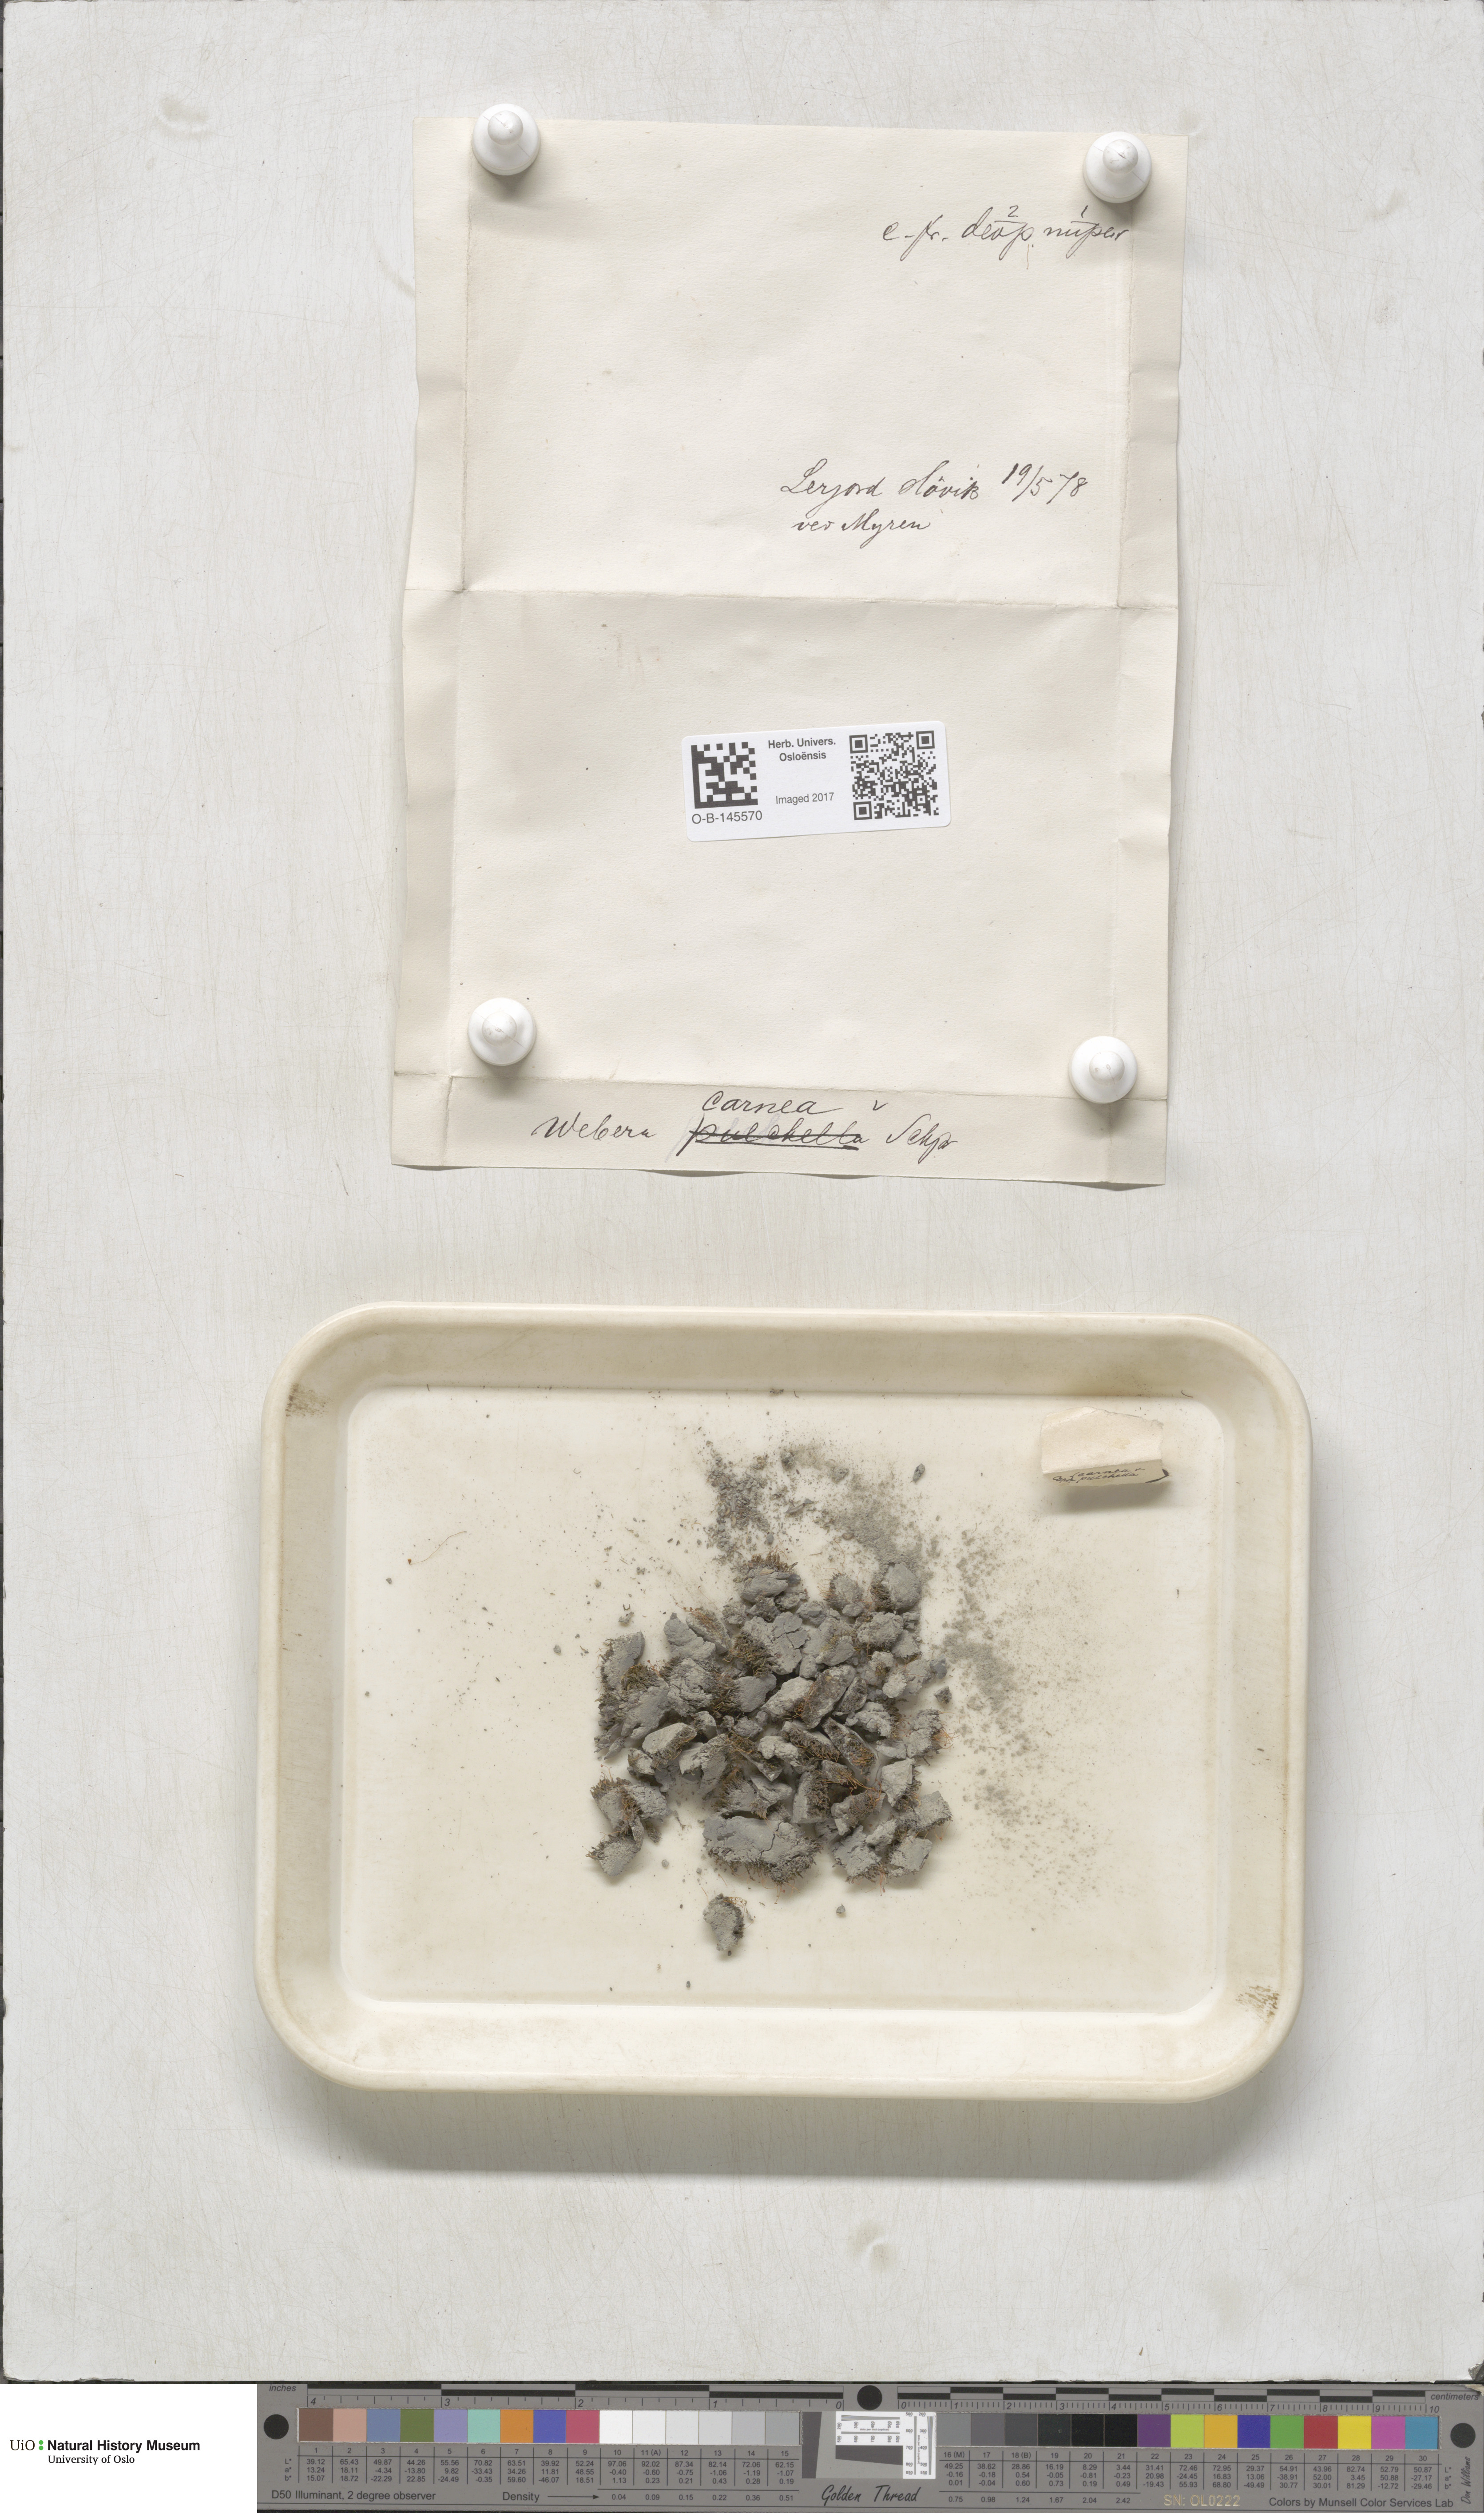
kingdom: Plantae
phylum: Bryophyta
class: Bryopsida
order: Bryales
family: Mniaceae
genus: Pohlia
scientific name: Pohlia melanodon
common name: Black-toothed nodding moss
